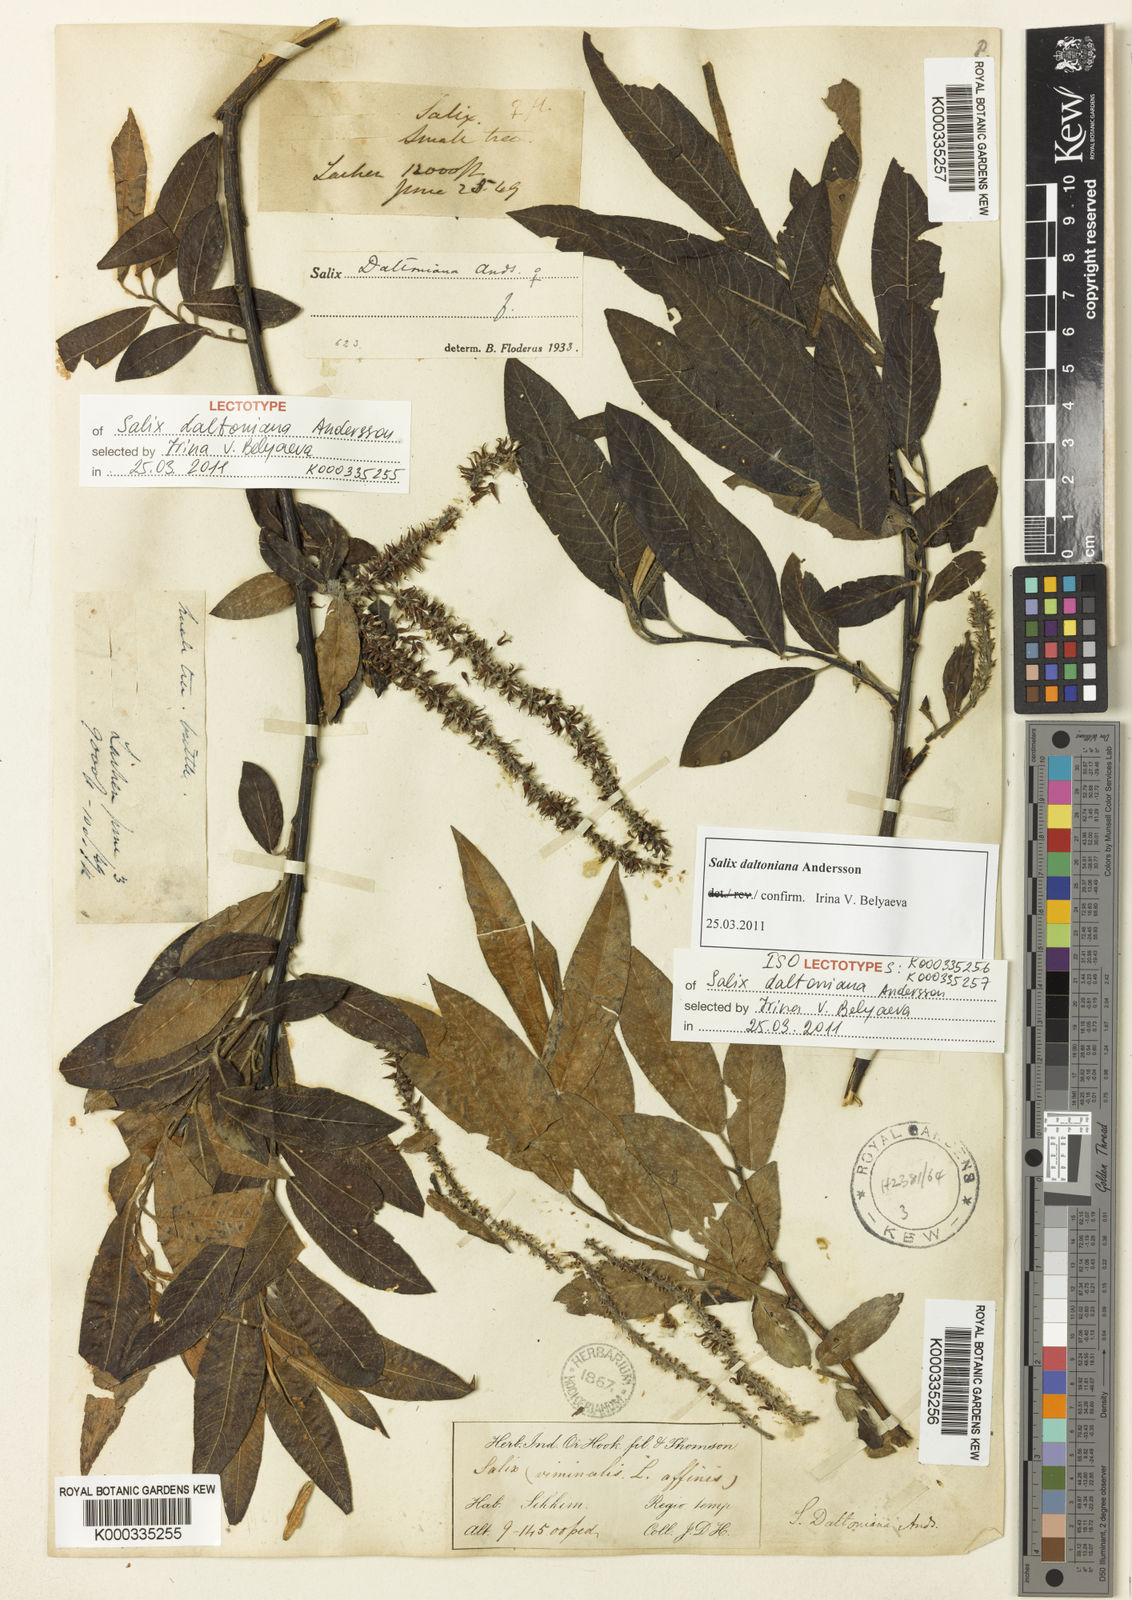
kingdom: Plantae
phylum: Tracheophyta
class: Magnoliopsida
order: Malpighiales
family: Salicaceae
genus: Salix
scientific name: Salix daltoniana
